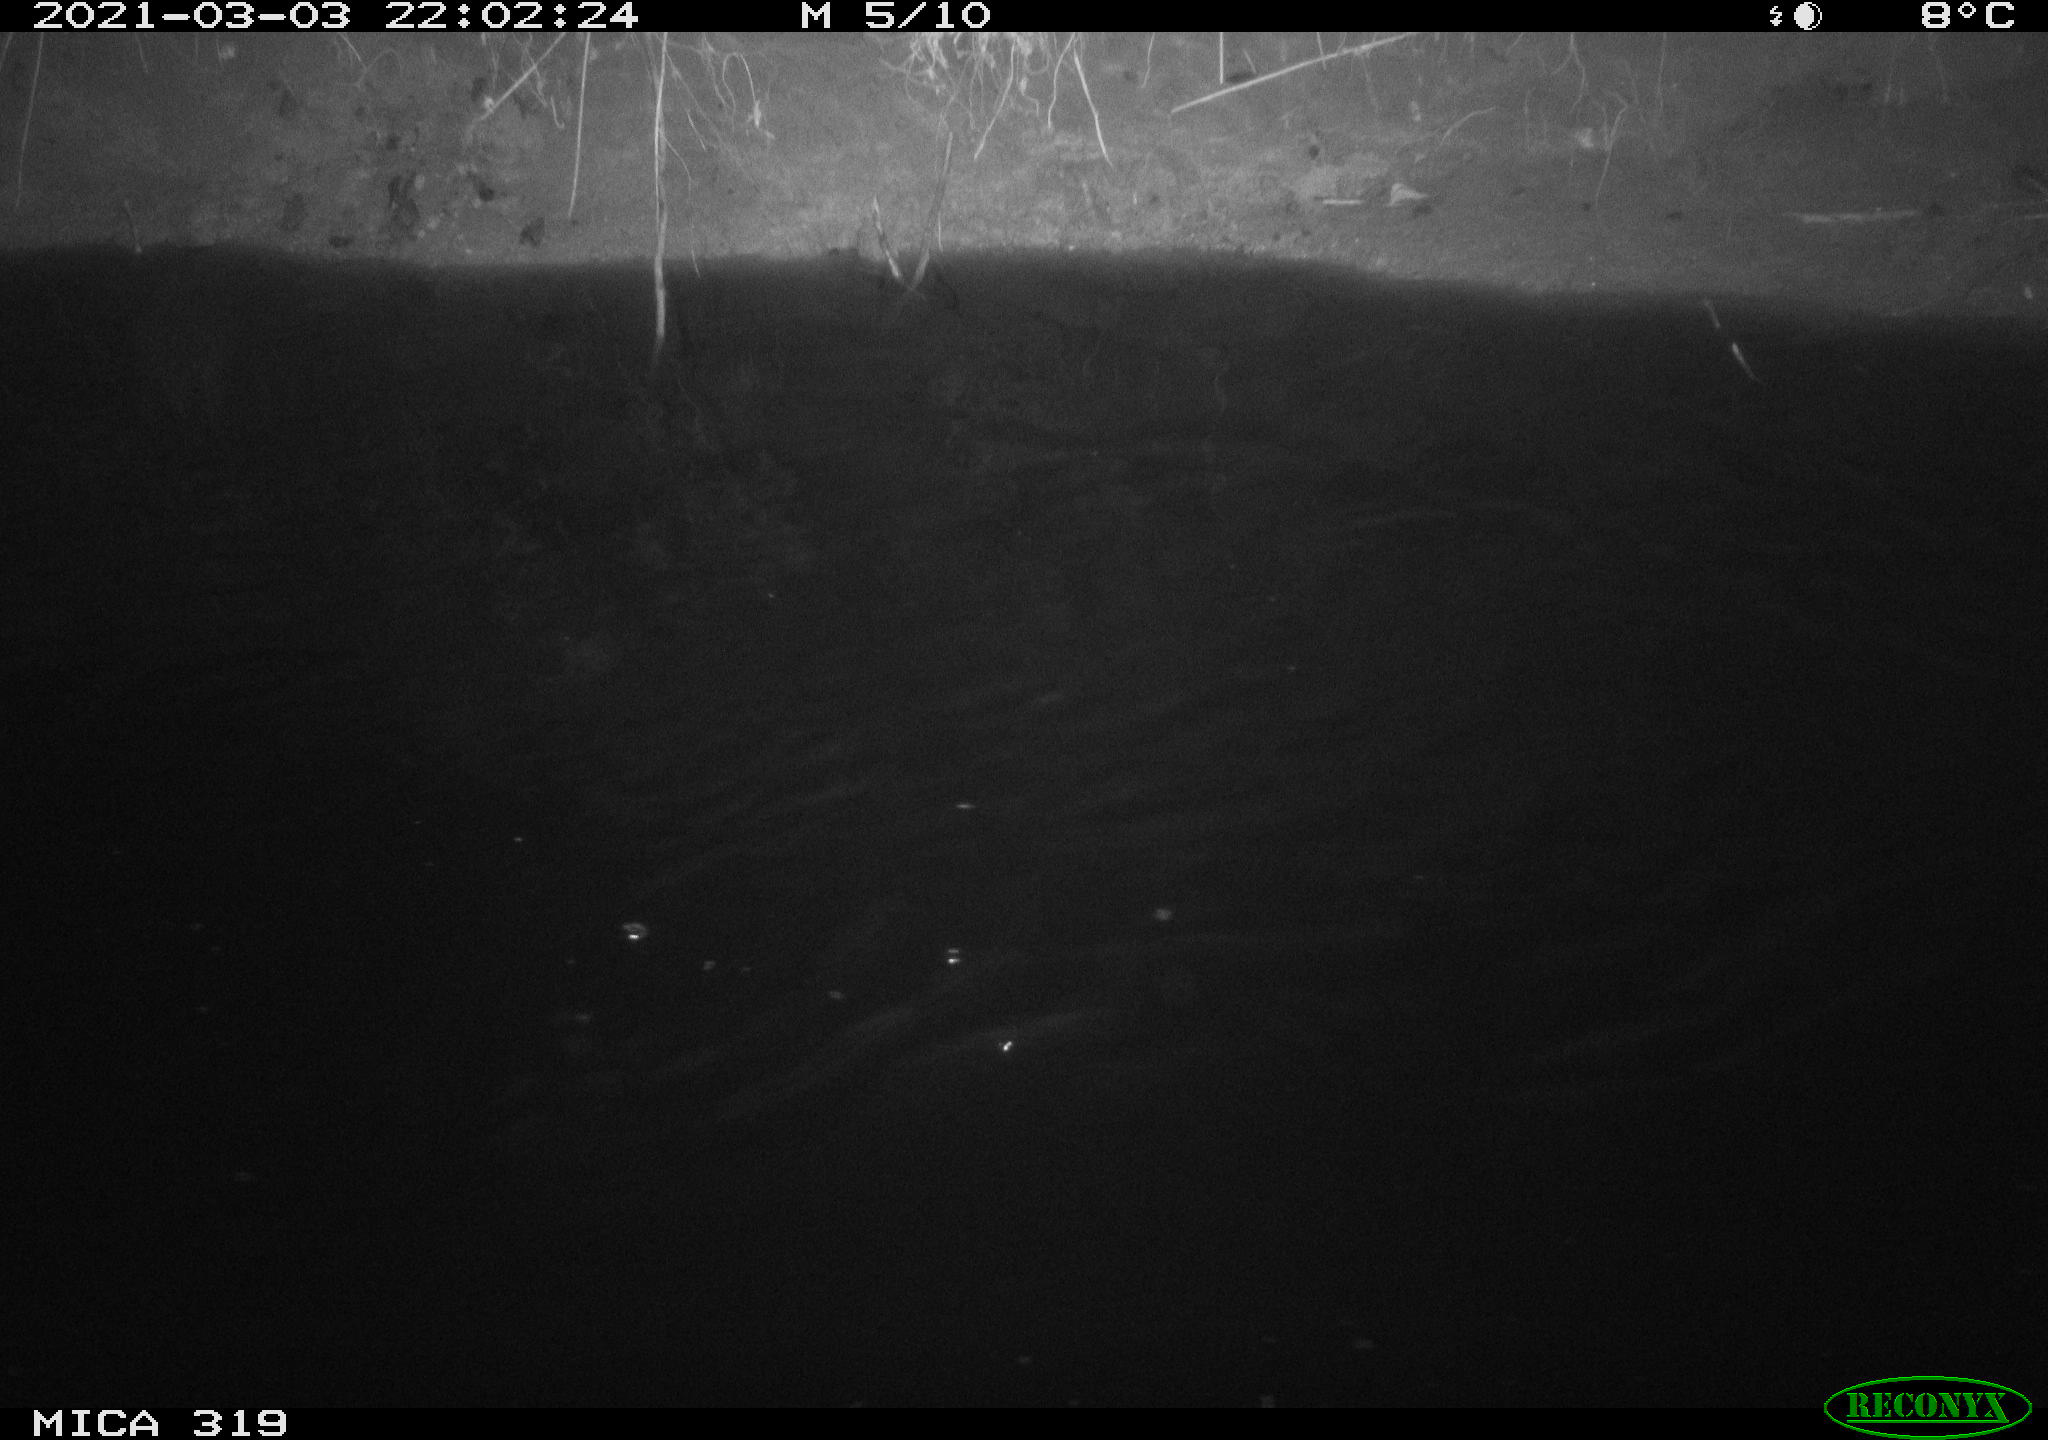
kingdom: Animalia
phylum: Chordata
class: Aves
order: Anseriformes
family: Anatidae
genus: Anas
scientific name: Anas platyrhynchos
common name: Mallard
